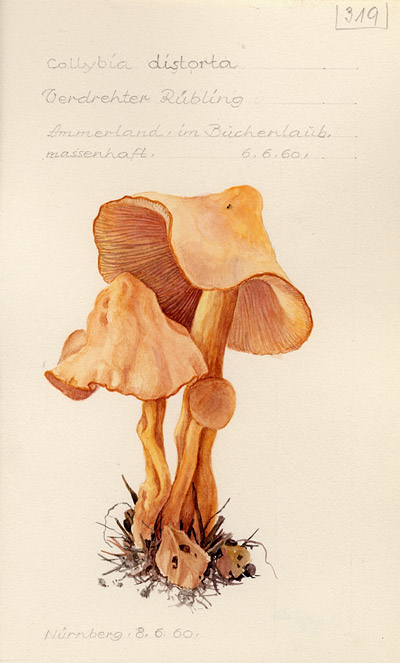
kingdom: Fungi
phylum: Basidiomycota
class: Agaricomycetes
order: Agaricales
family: Omphalotaceae
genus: Rhodocollybia
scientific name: Rhodocollybia prolixa
